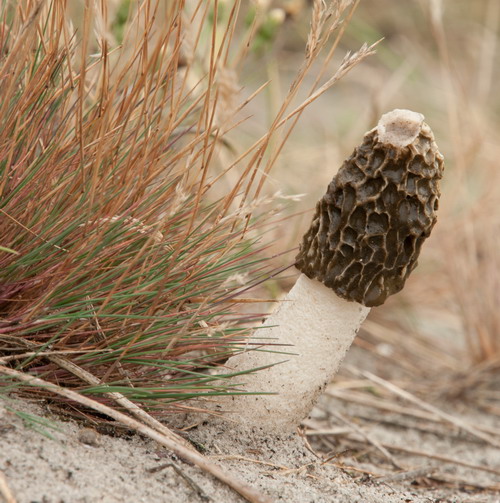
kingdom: Fungi
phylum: Basidiomycota
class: Agaricomycetes
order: Phallales
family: Phallaceae
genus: Phallus
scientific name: Phallus hadriani
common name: sand-stinksvamp
